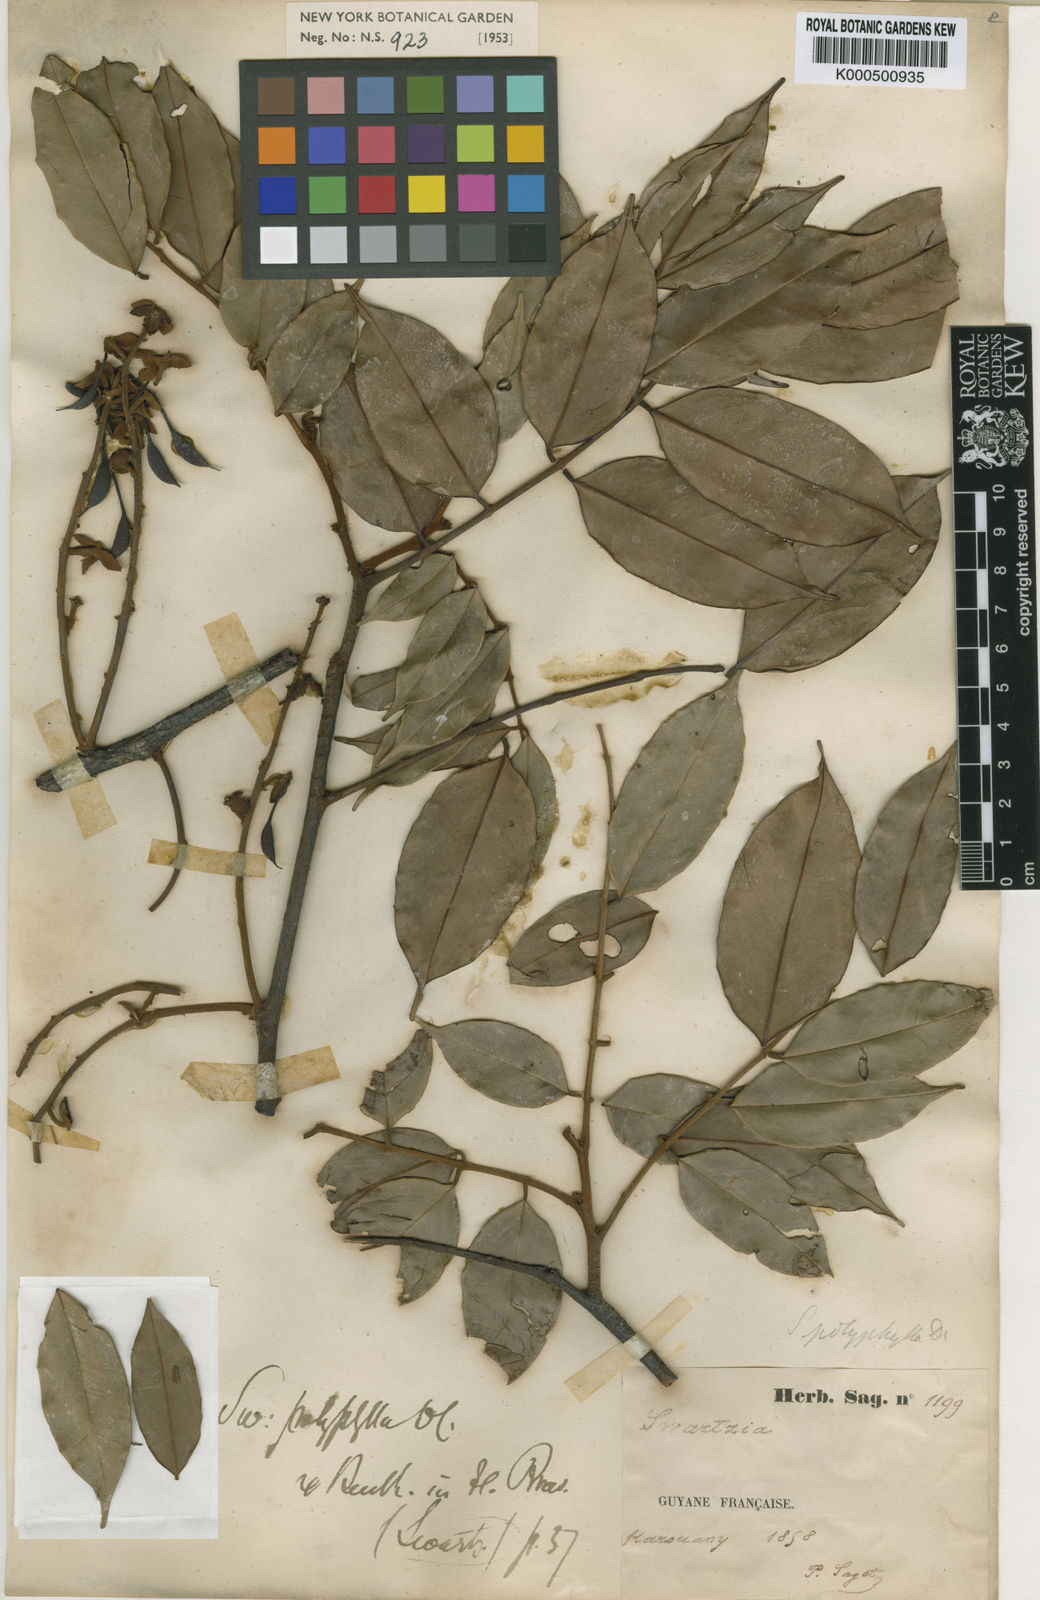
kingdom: Plantae
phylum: Tracheophyta
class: Magnoliopsida
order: Fabales
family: Fabaceae
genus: Swartzia
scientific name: Swartzia polyphylla
